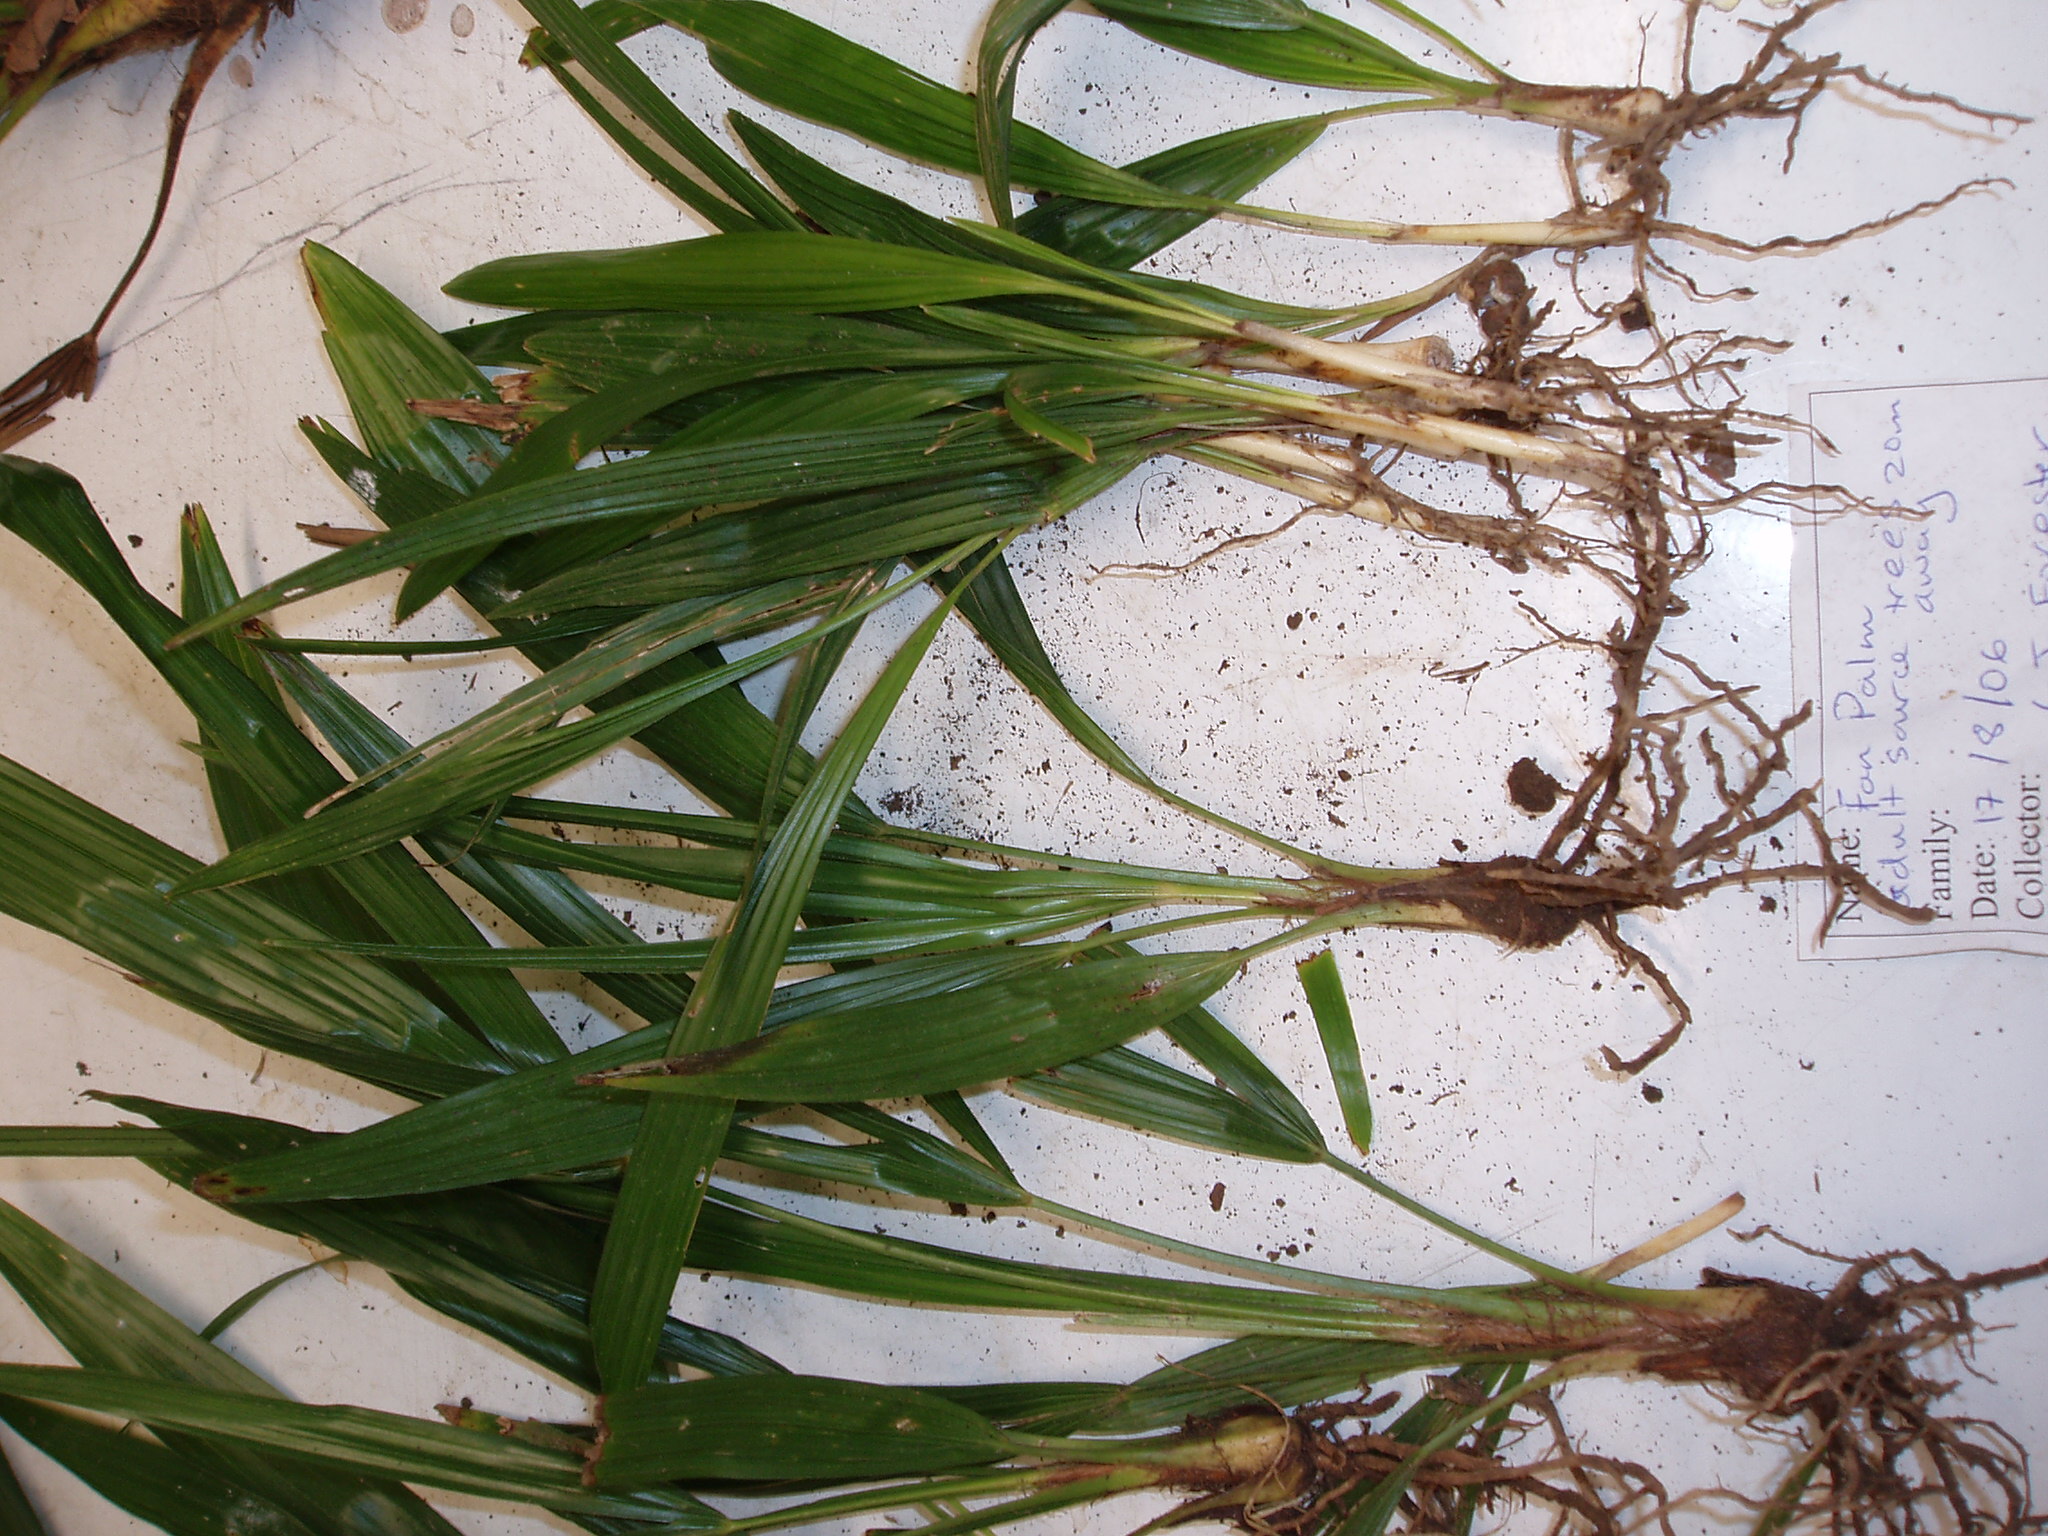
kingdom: Plantae
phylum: Tracheophyta
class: Liliopsida
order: Arecales
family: Arecaceae
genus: Trachycarpus
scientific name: Trachycarpus fortunei
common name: Chusan palm
